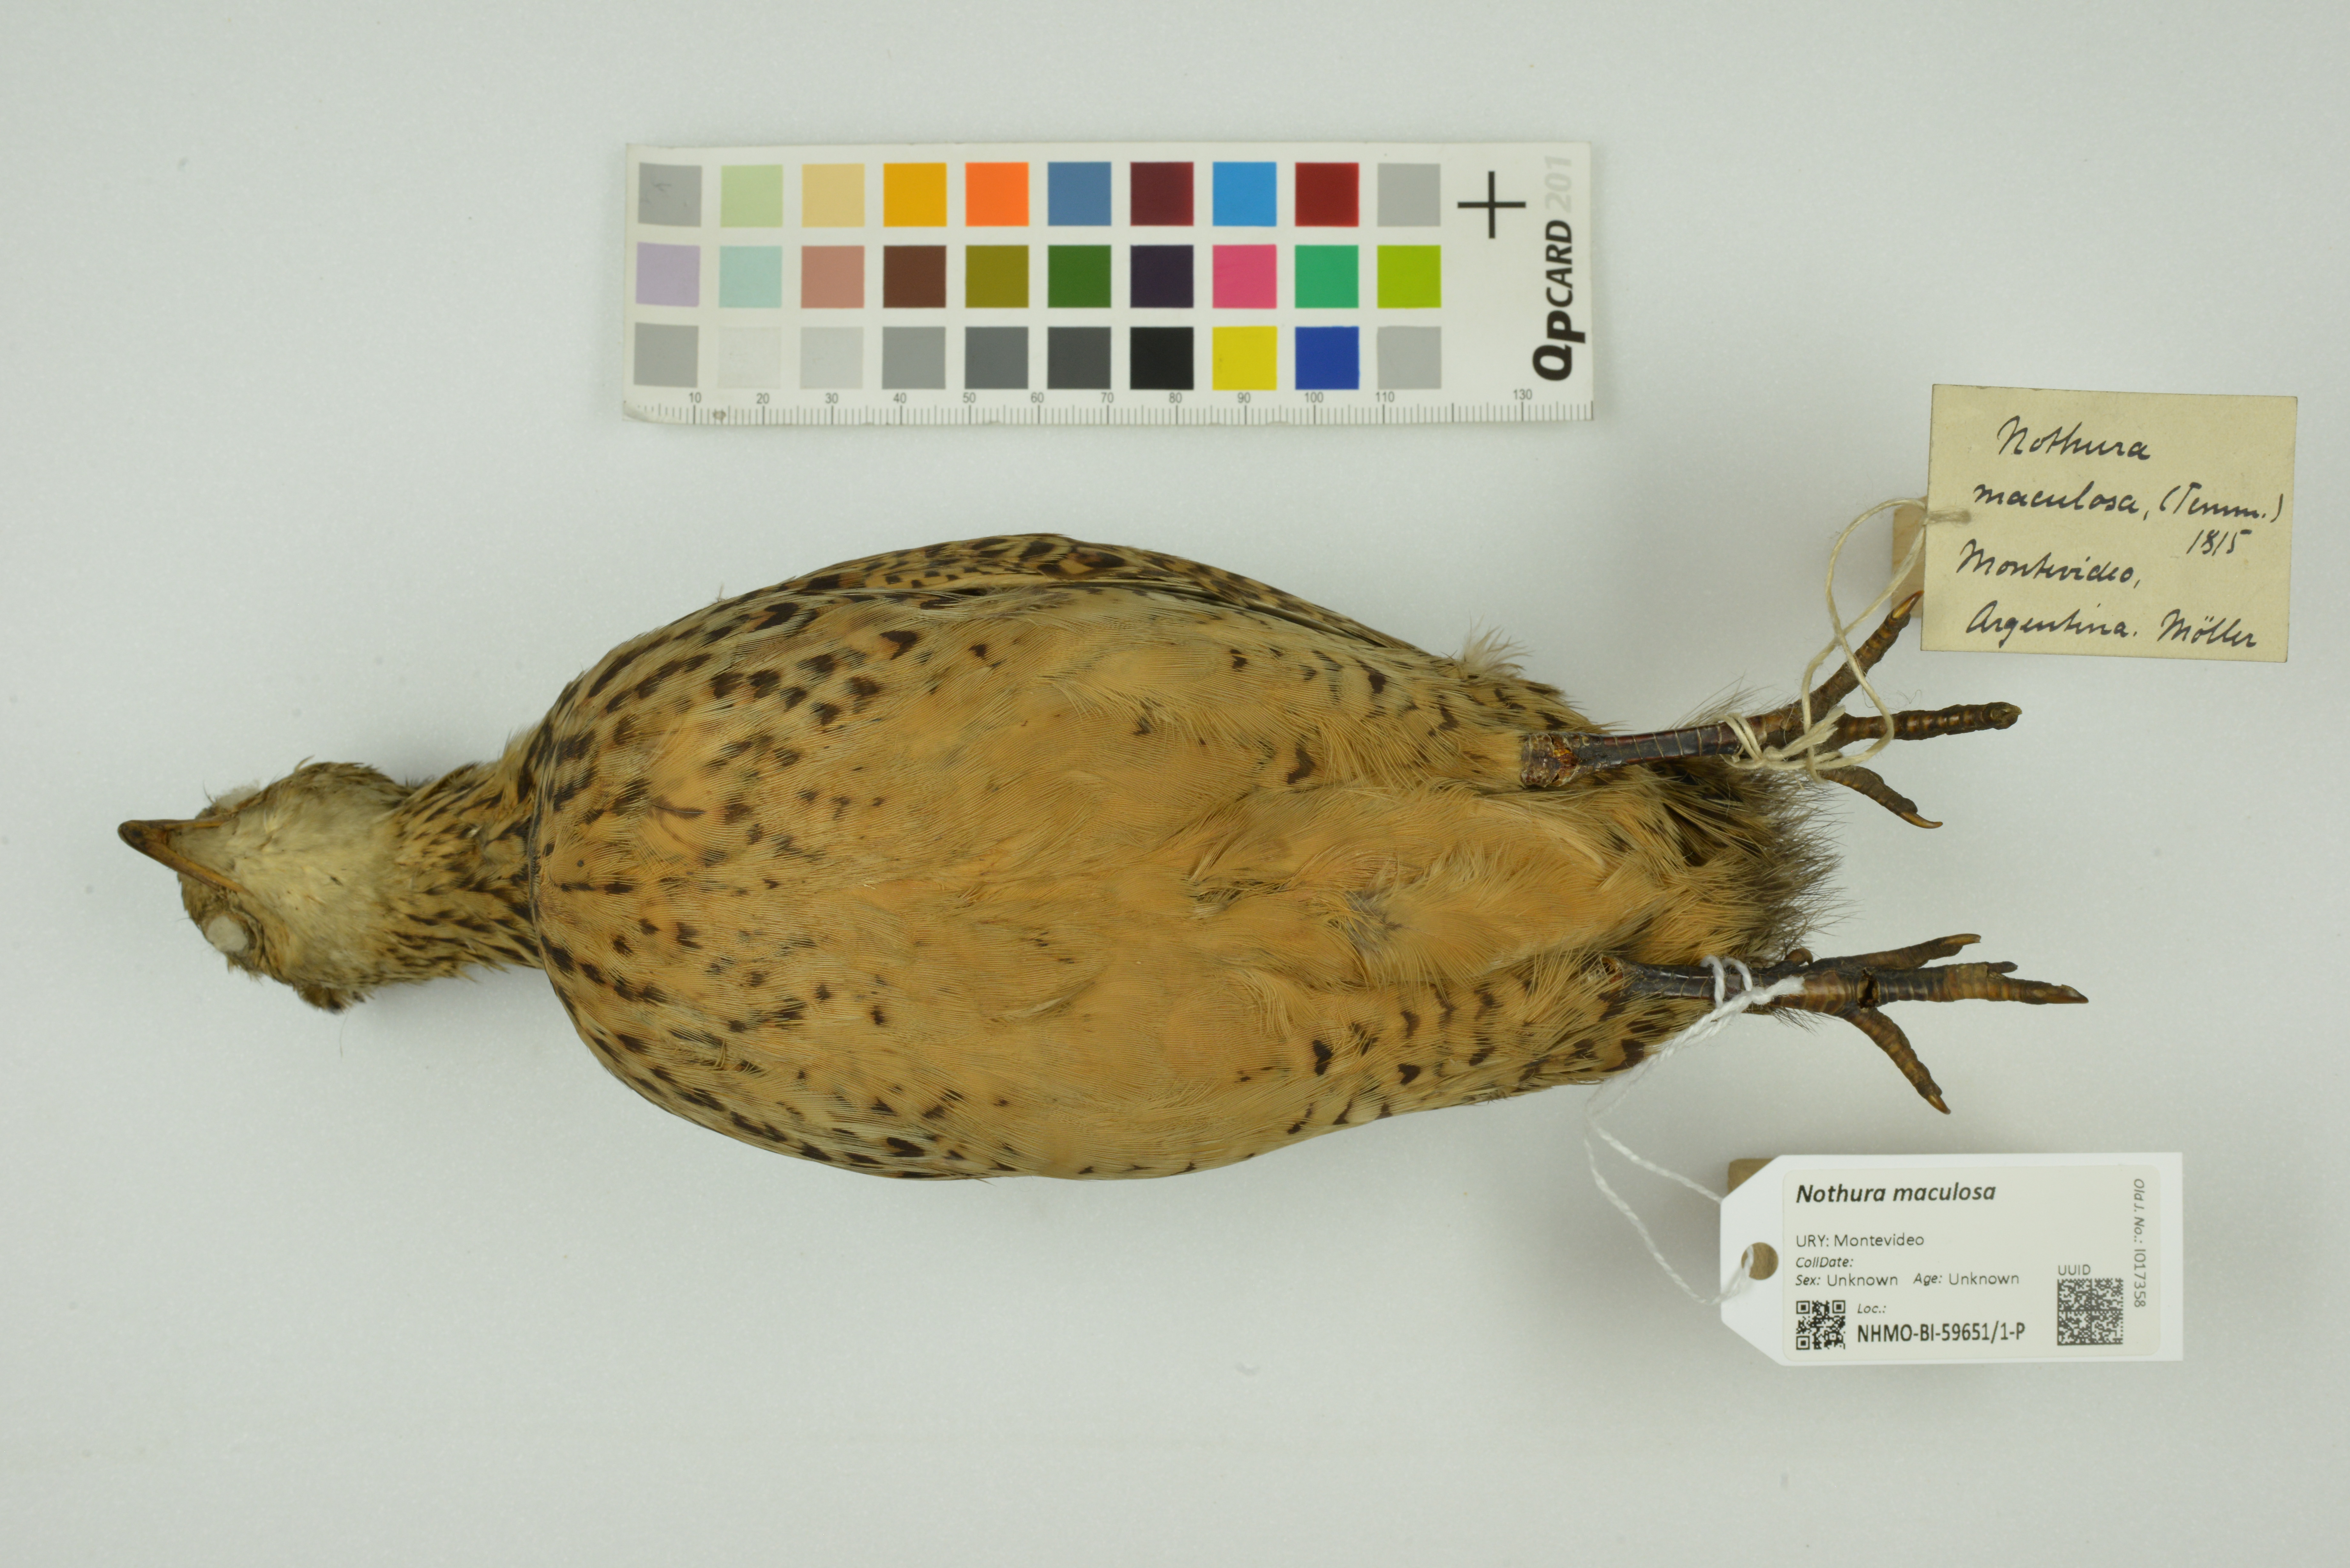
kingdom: Animalia
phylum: Chordata
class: Aves
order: Tinamiformes
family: Tinamidae
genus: Nothura
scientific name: Nothura maculosa
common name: Spotted nothura
